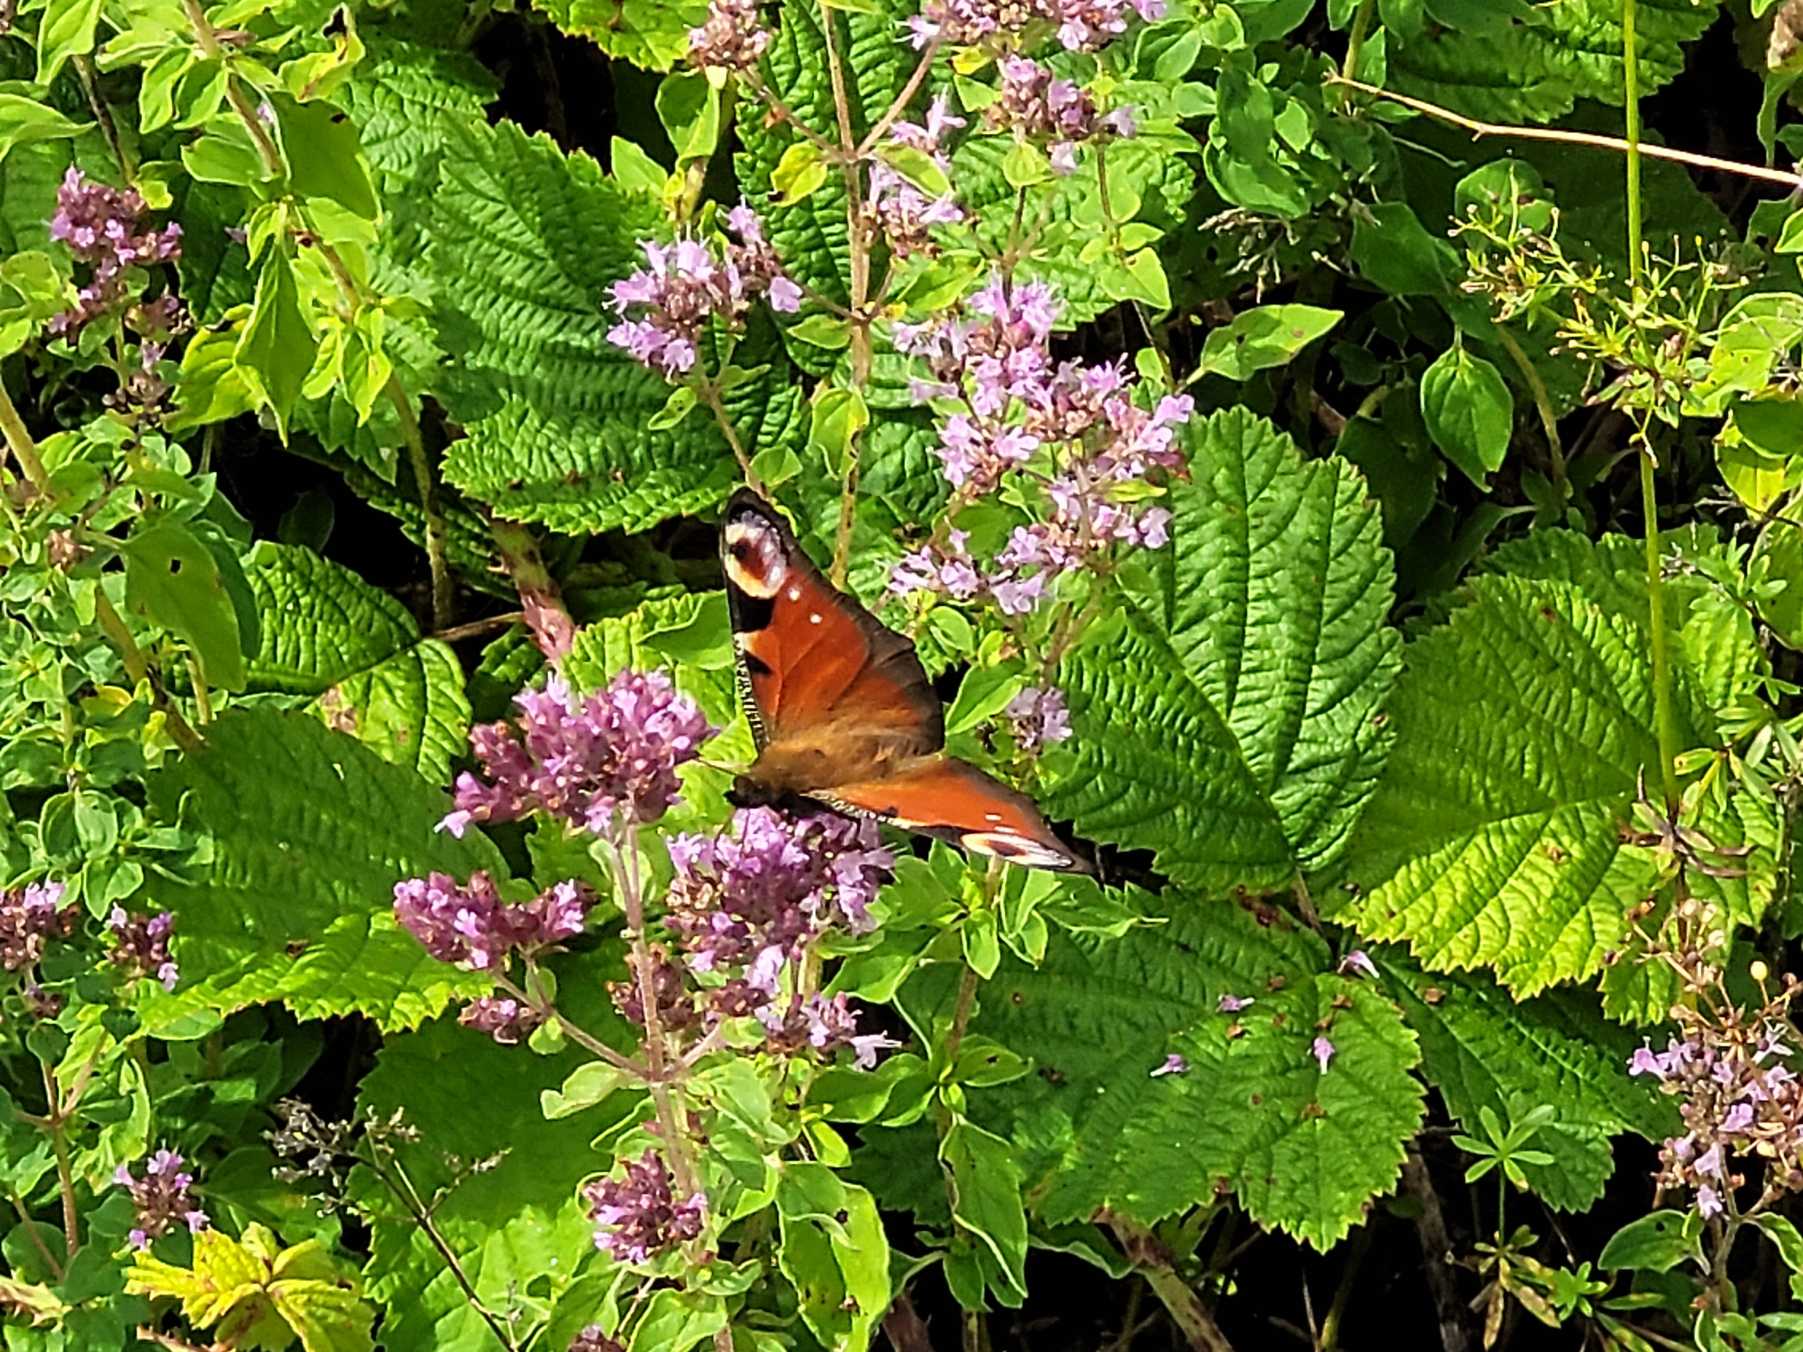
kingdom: Animalia
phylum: Arthropoda
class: Insecta
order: Lepidoptera
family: Nymphalidae
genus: Aglais
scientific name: Aglais io
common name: Dagpåfugleøje
